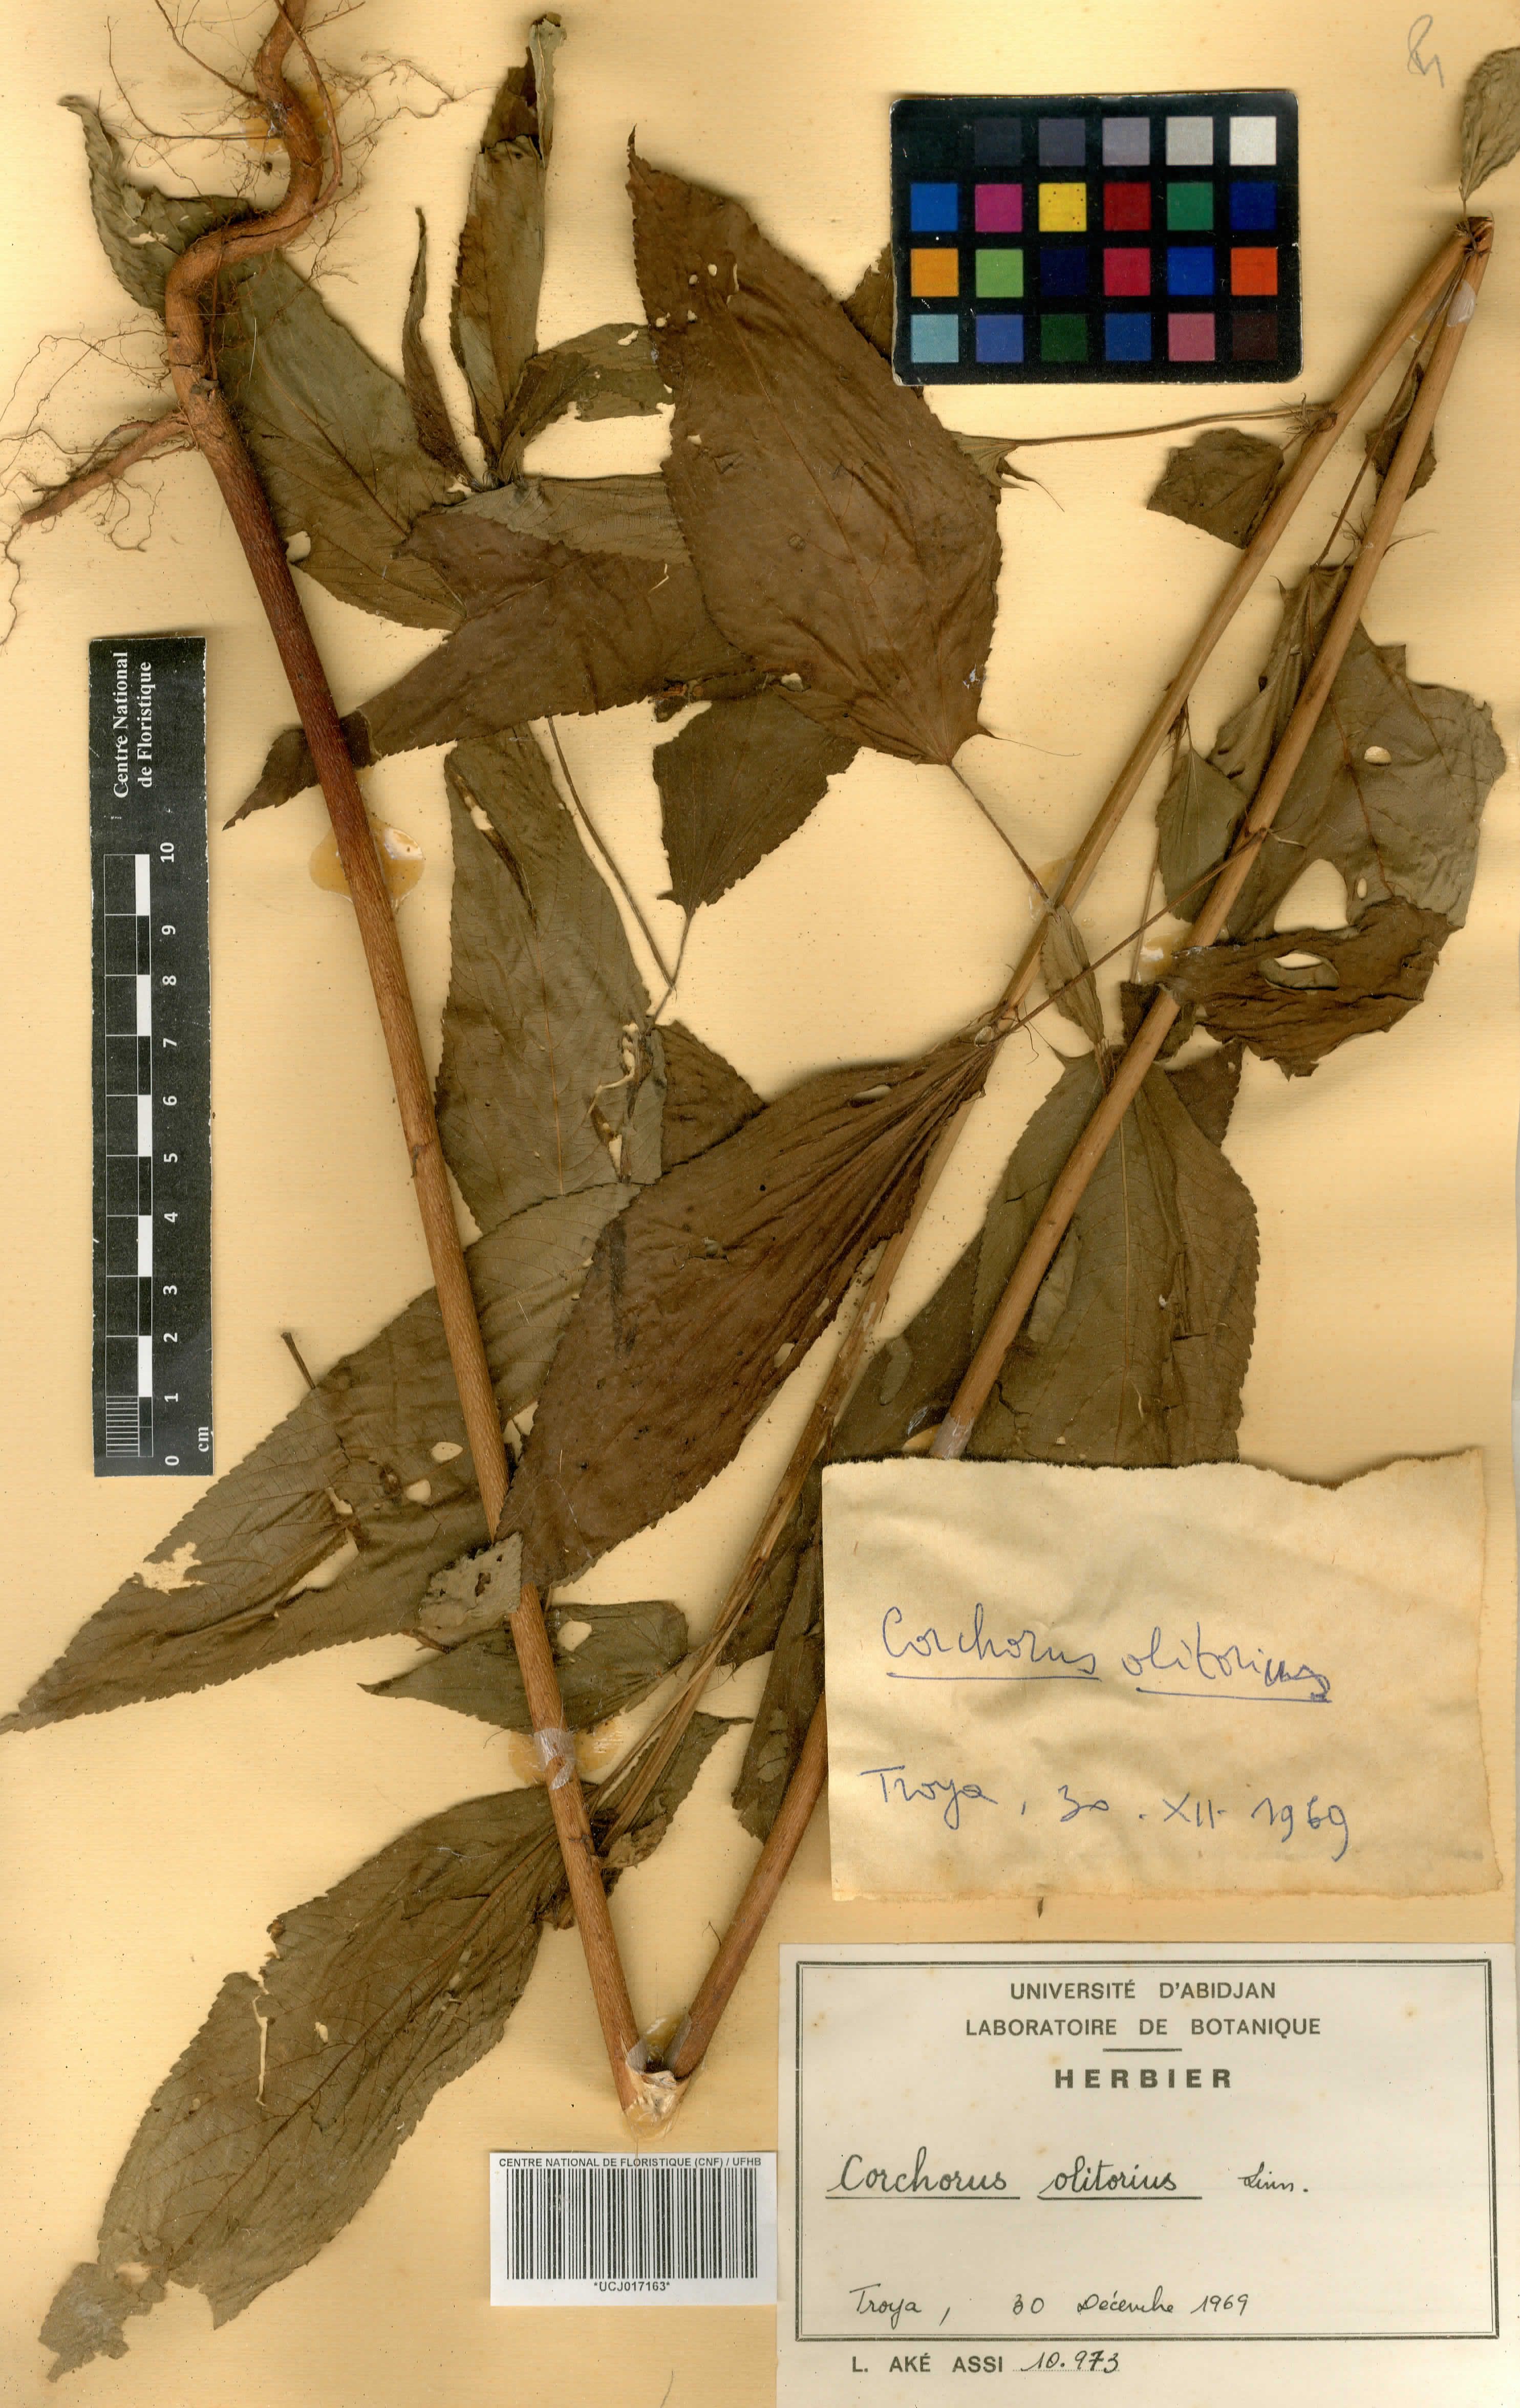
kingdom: Plantae
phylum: Tracheophyta
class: Magnoliopsida
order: Malvales
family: Malvaceae
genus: Corchorus
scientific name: Corchorus olitorius
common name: Tossa jute
